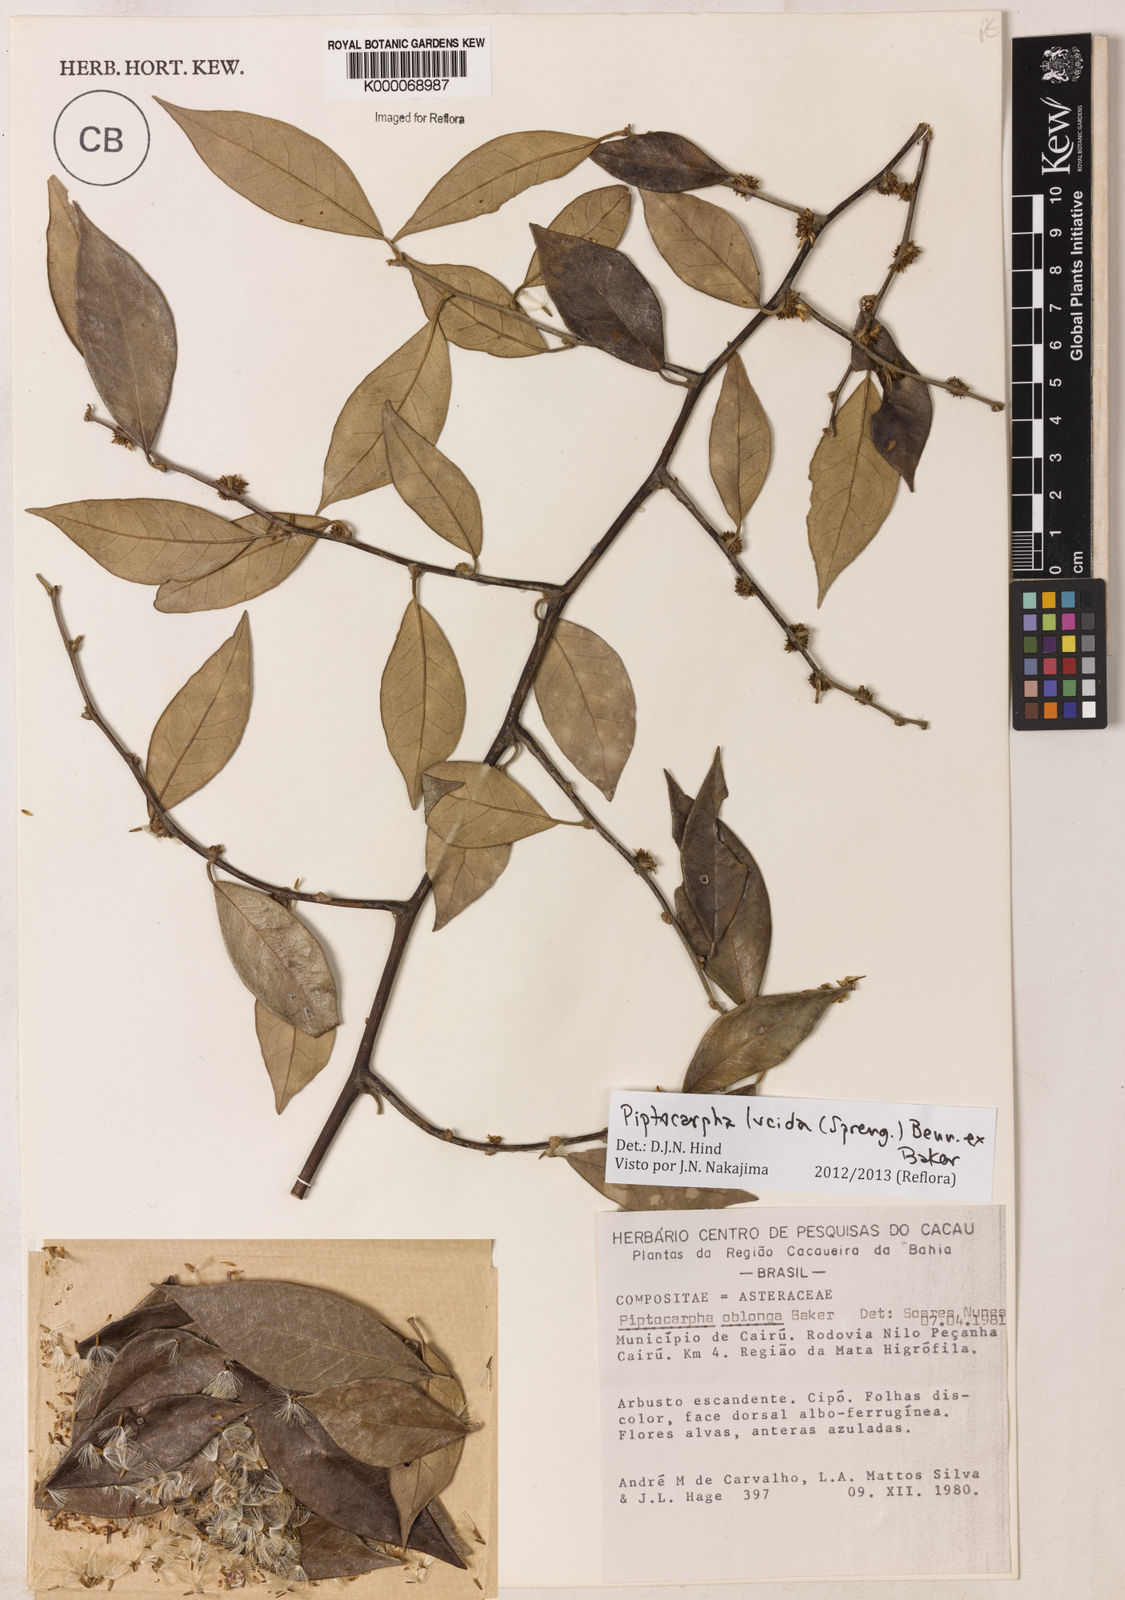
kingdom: Plantae
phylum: Tracheophyta
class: Magnoliopsida
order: Asterales
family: Asteraceae
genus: Piptocarpha
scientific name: Piptocarpha oblonga
